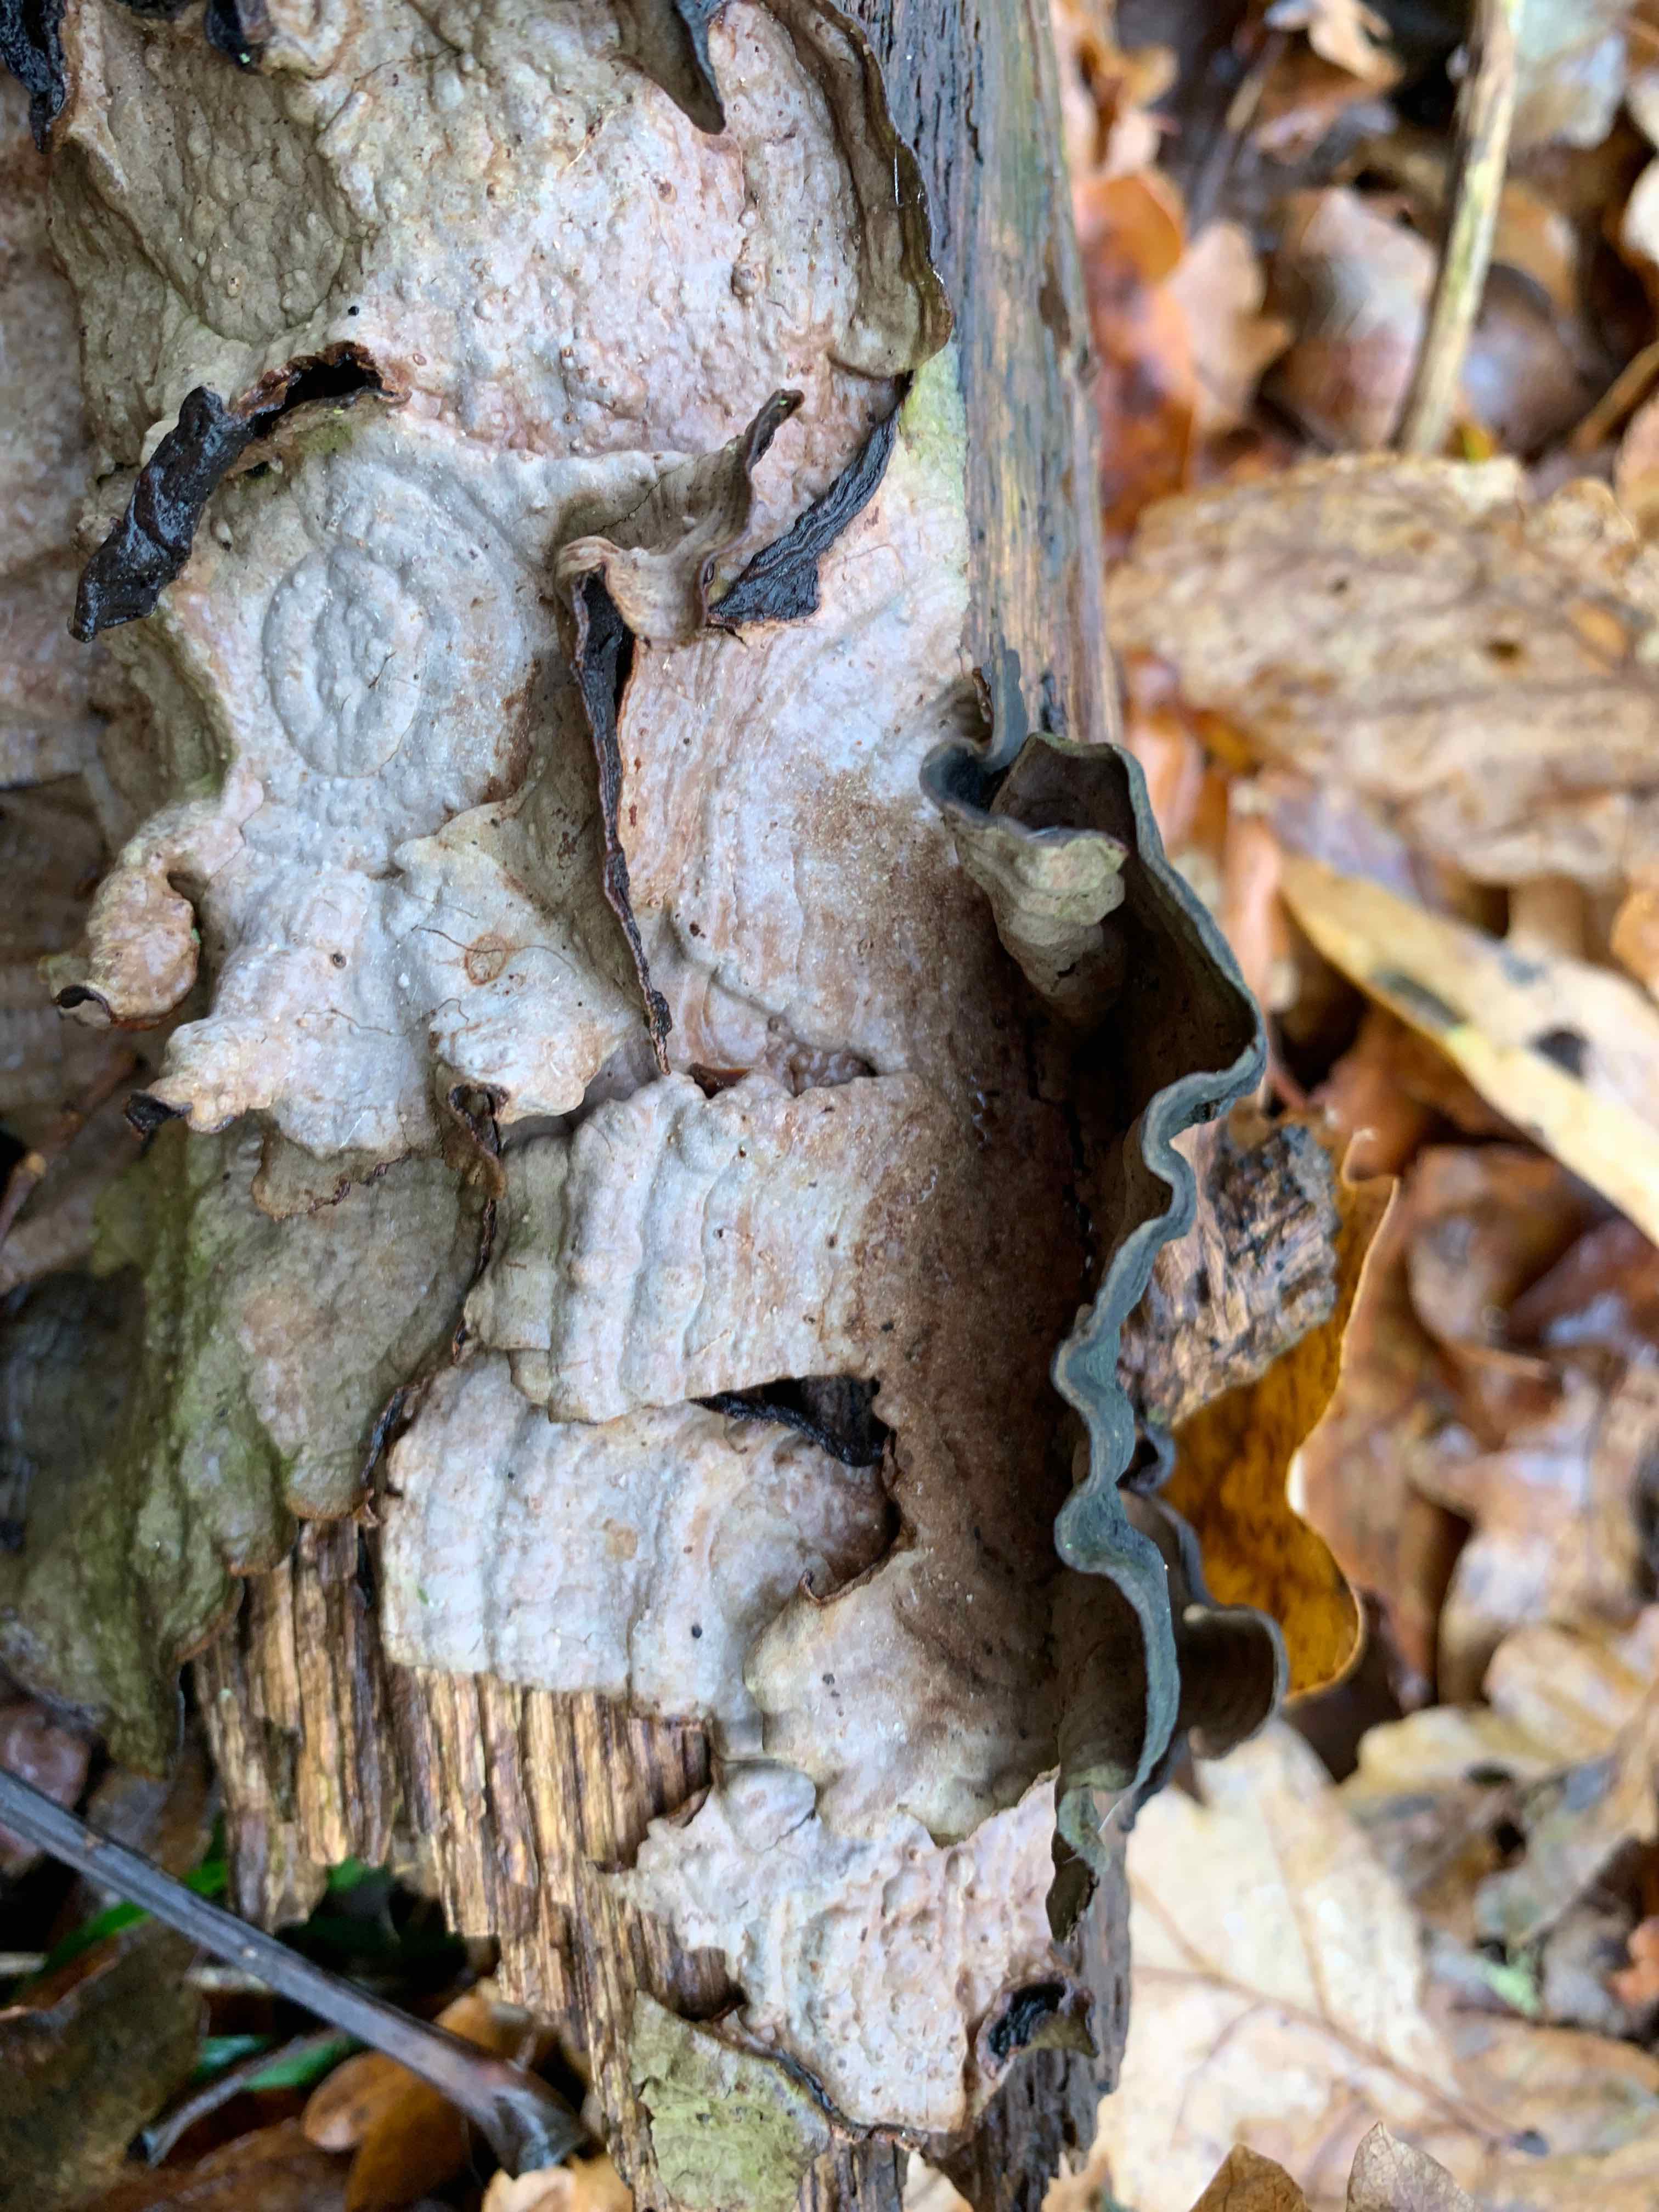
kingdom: Fungi
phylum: Basidiomycota
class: Agaricomycetes
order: Hymenochaetales
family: Hymenochaetaceae
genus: Hymenochaete
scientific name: Hymenochaete rubiginosa
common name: stiv ruslædersvamp
